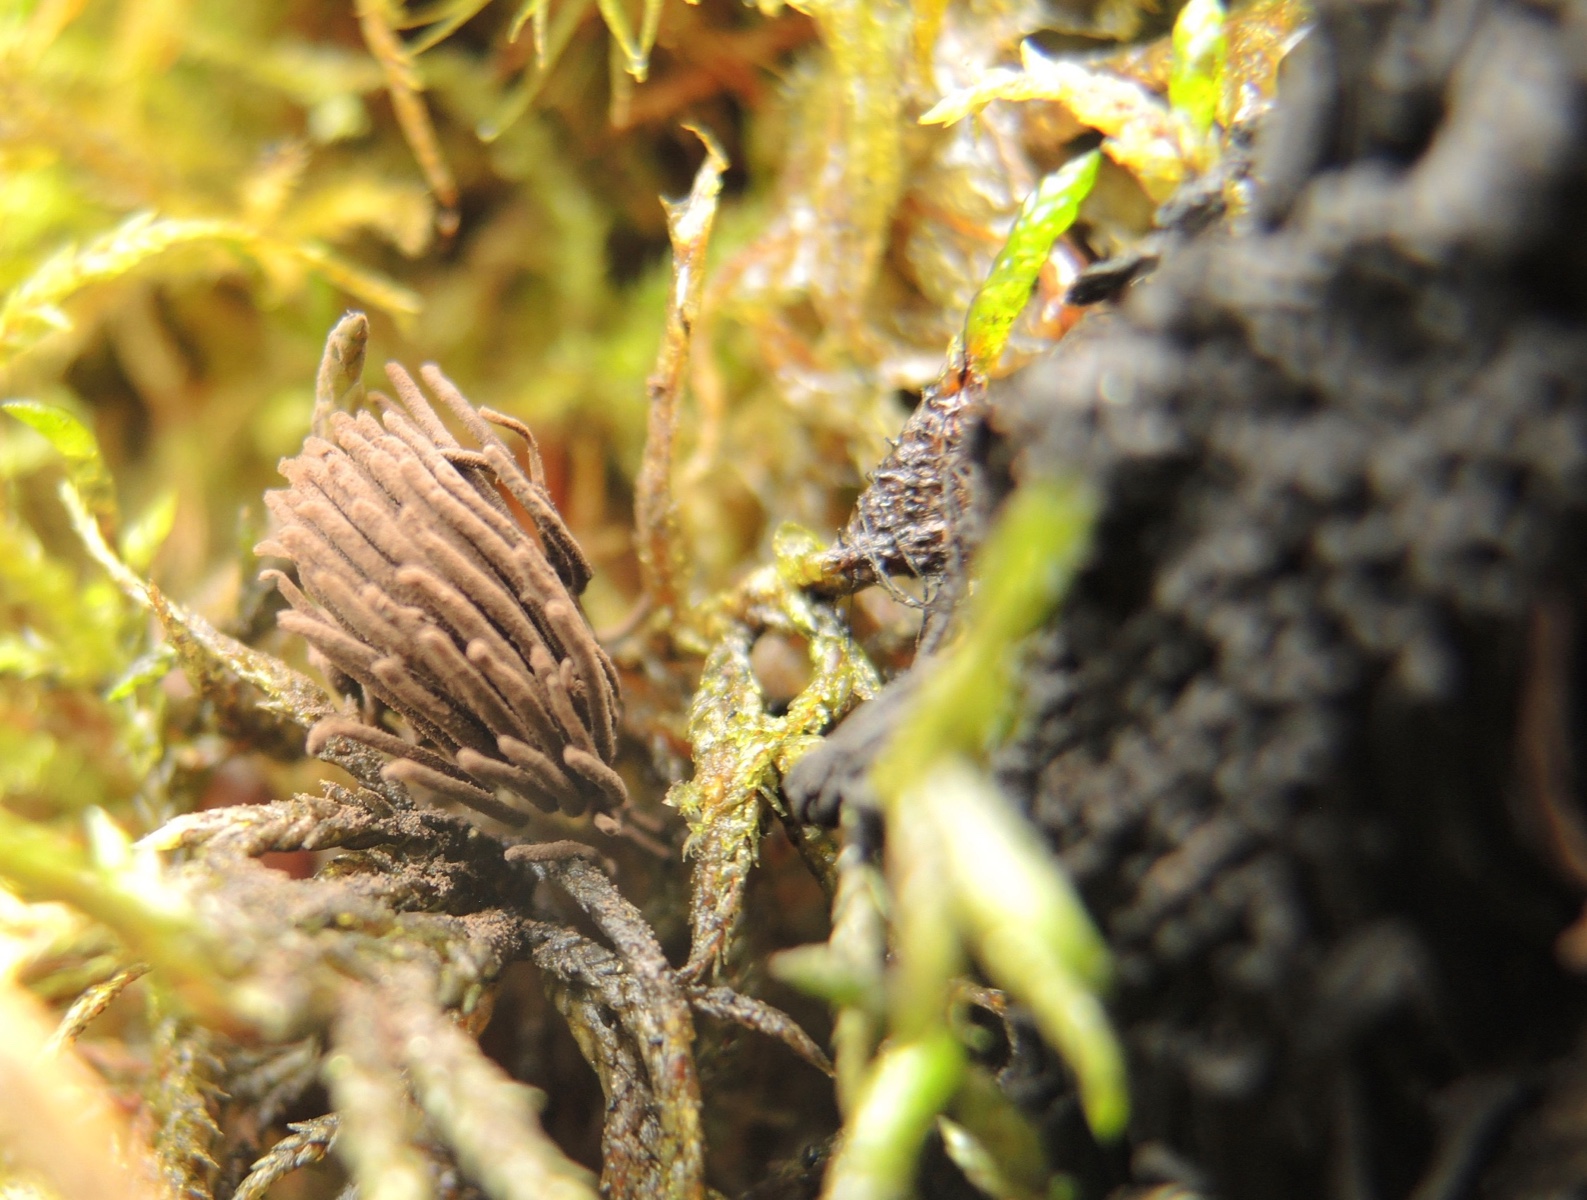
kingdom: Protozoa
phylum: Mycetozoa
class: Myxomycetes
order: Stemonitidales
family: Stemonitidaceae
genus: Stemonitis
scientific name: Stemonitis fusca
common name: sodbrun støvkølle
